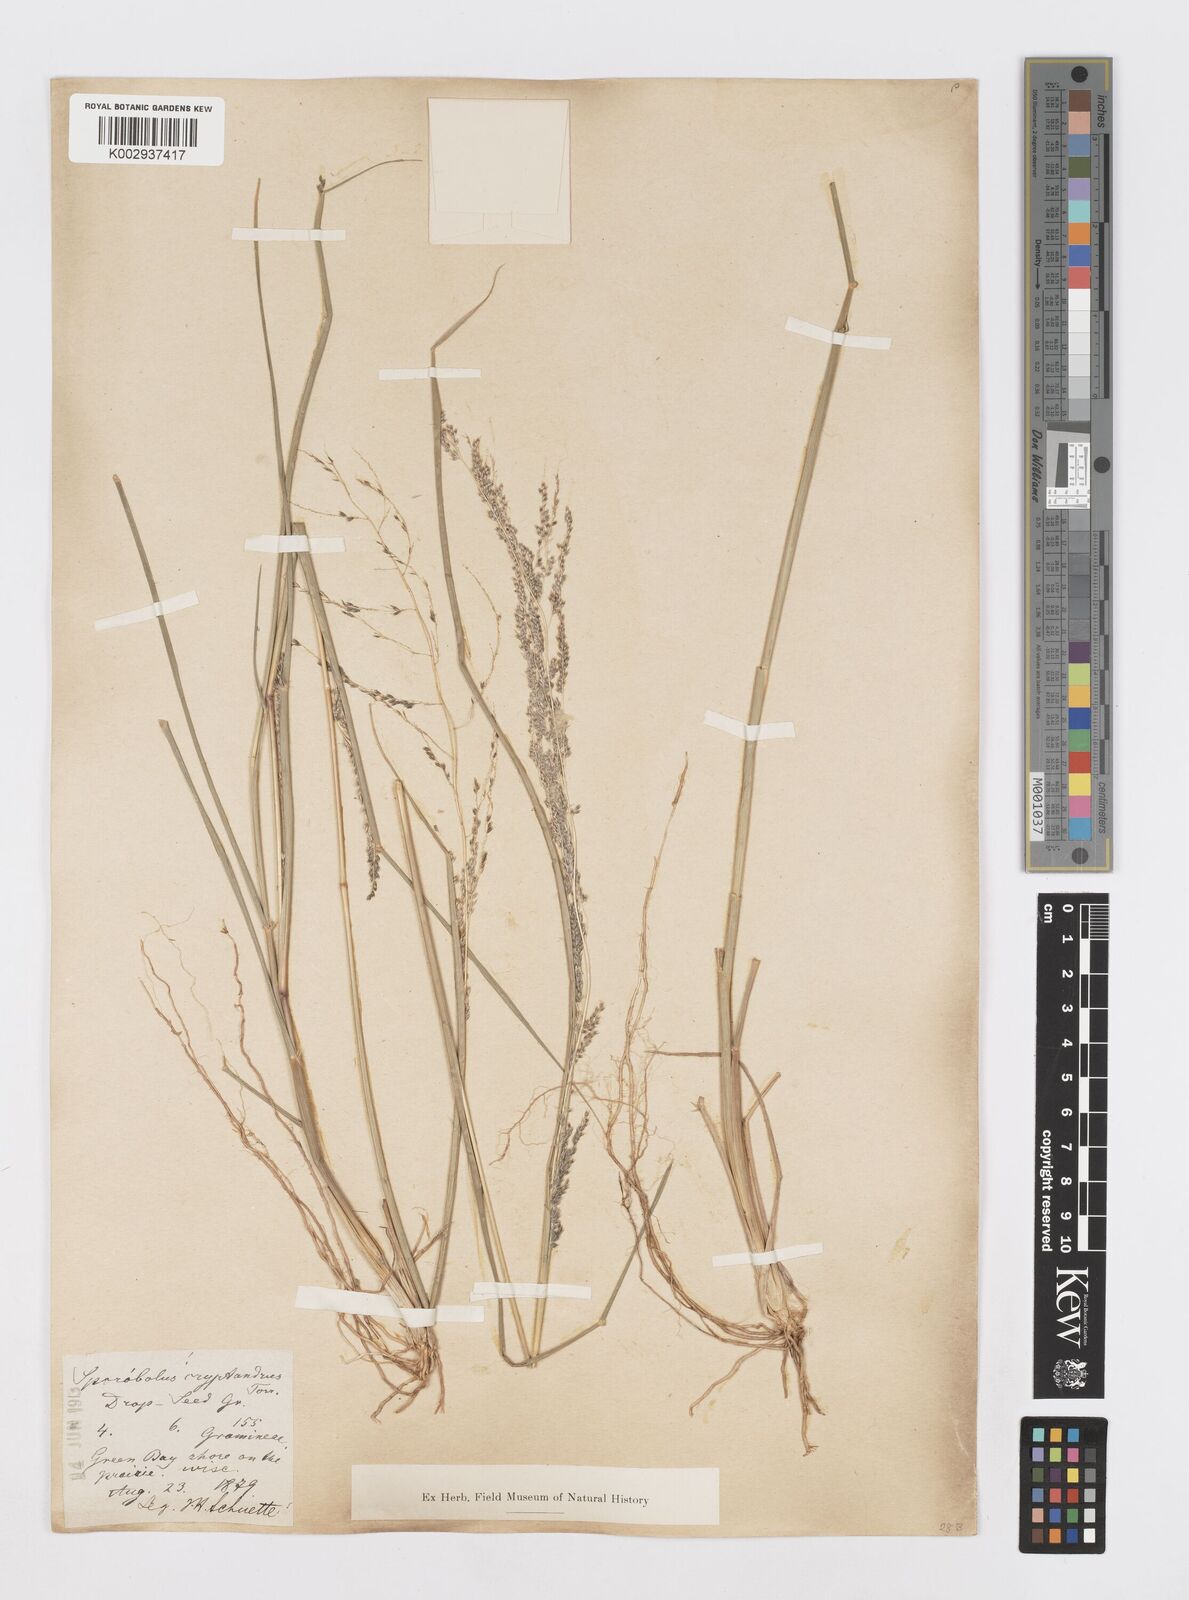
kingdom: Plantae
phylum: Tracheophyta
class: Liliopsida
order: Poales
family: Poaceae
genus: Sporobolus
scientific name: Sporobolus cryptandrus
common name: Sand dropseed
